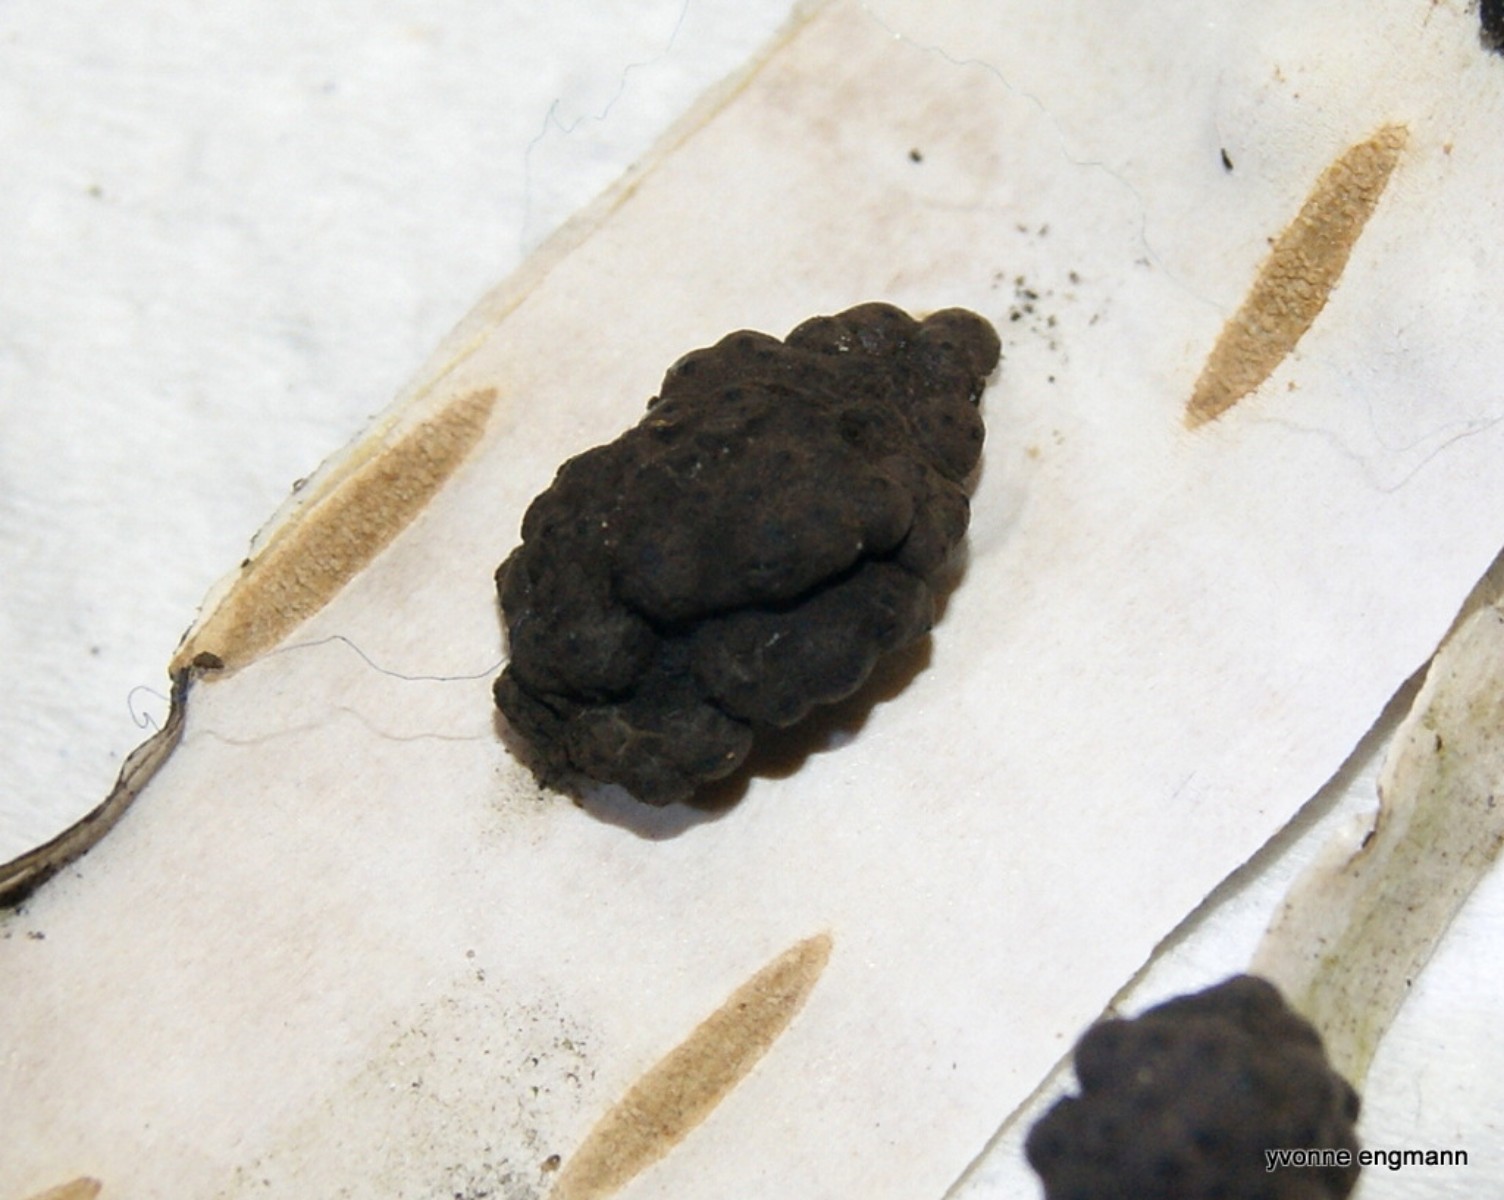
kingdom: Fungi
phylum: Ascomycota
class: Sordariomycetes
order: Xylariales
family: Hypoxylaceae
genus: Jackrogersella
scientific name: Jackrogersella multiformis
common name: foranderlig kulbær
